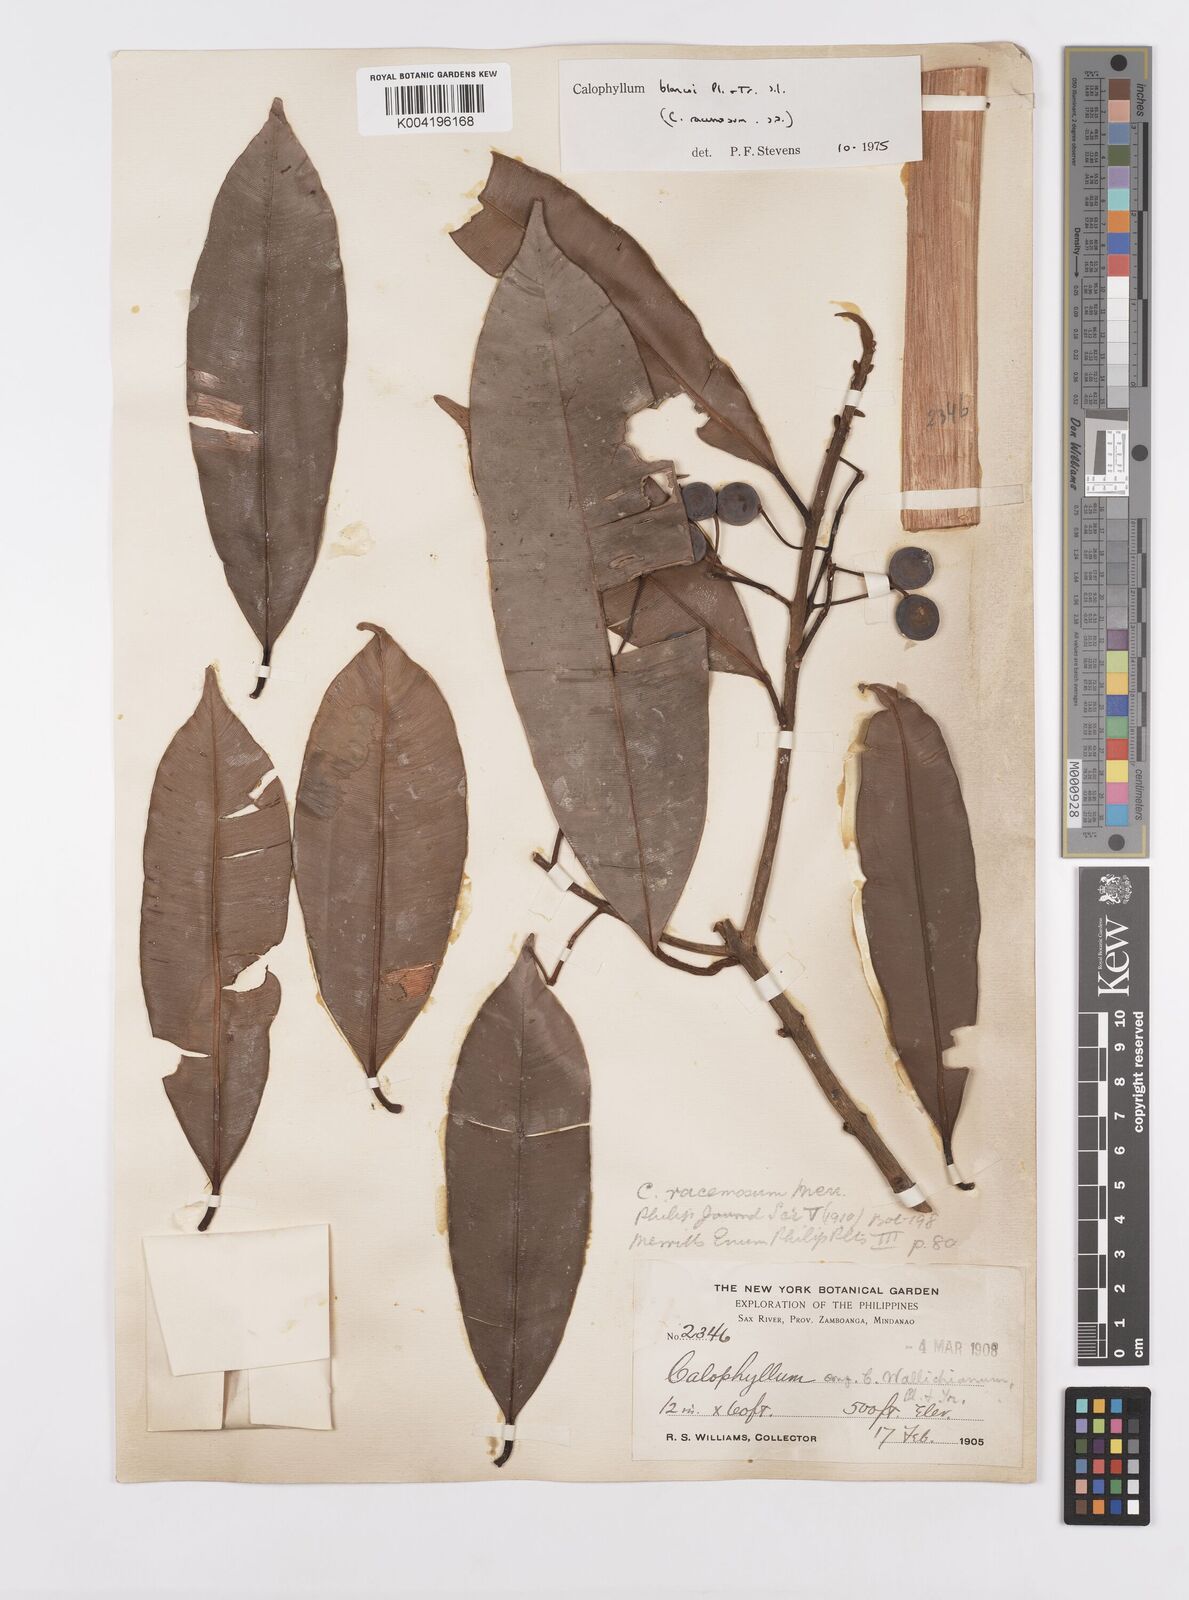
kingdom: Plantae
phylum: Tracheophyta
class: Magnoliopsida
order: Malpighiales
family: Calophyllaceae
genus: Calophyllum
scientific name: Calophyllum blancoi
